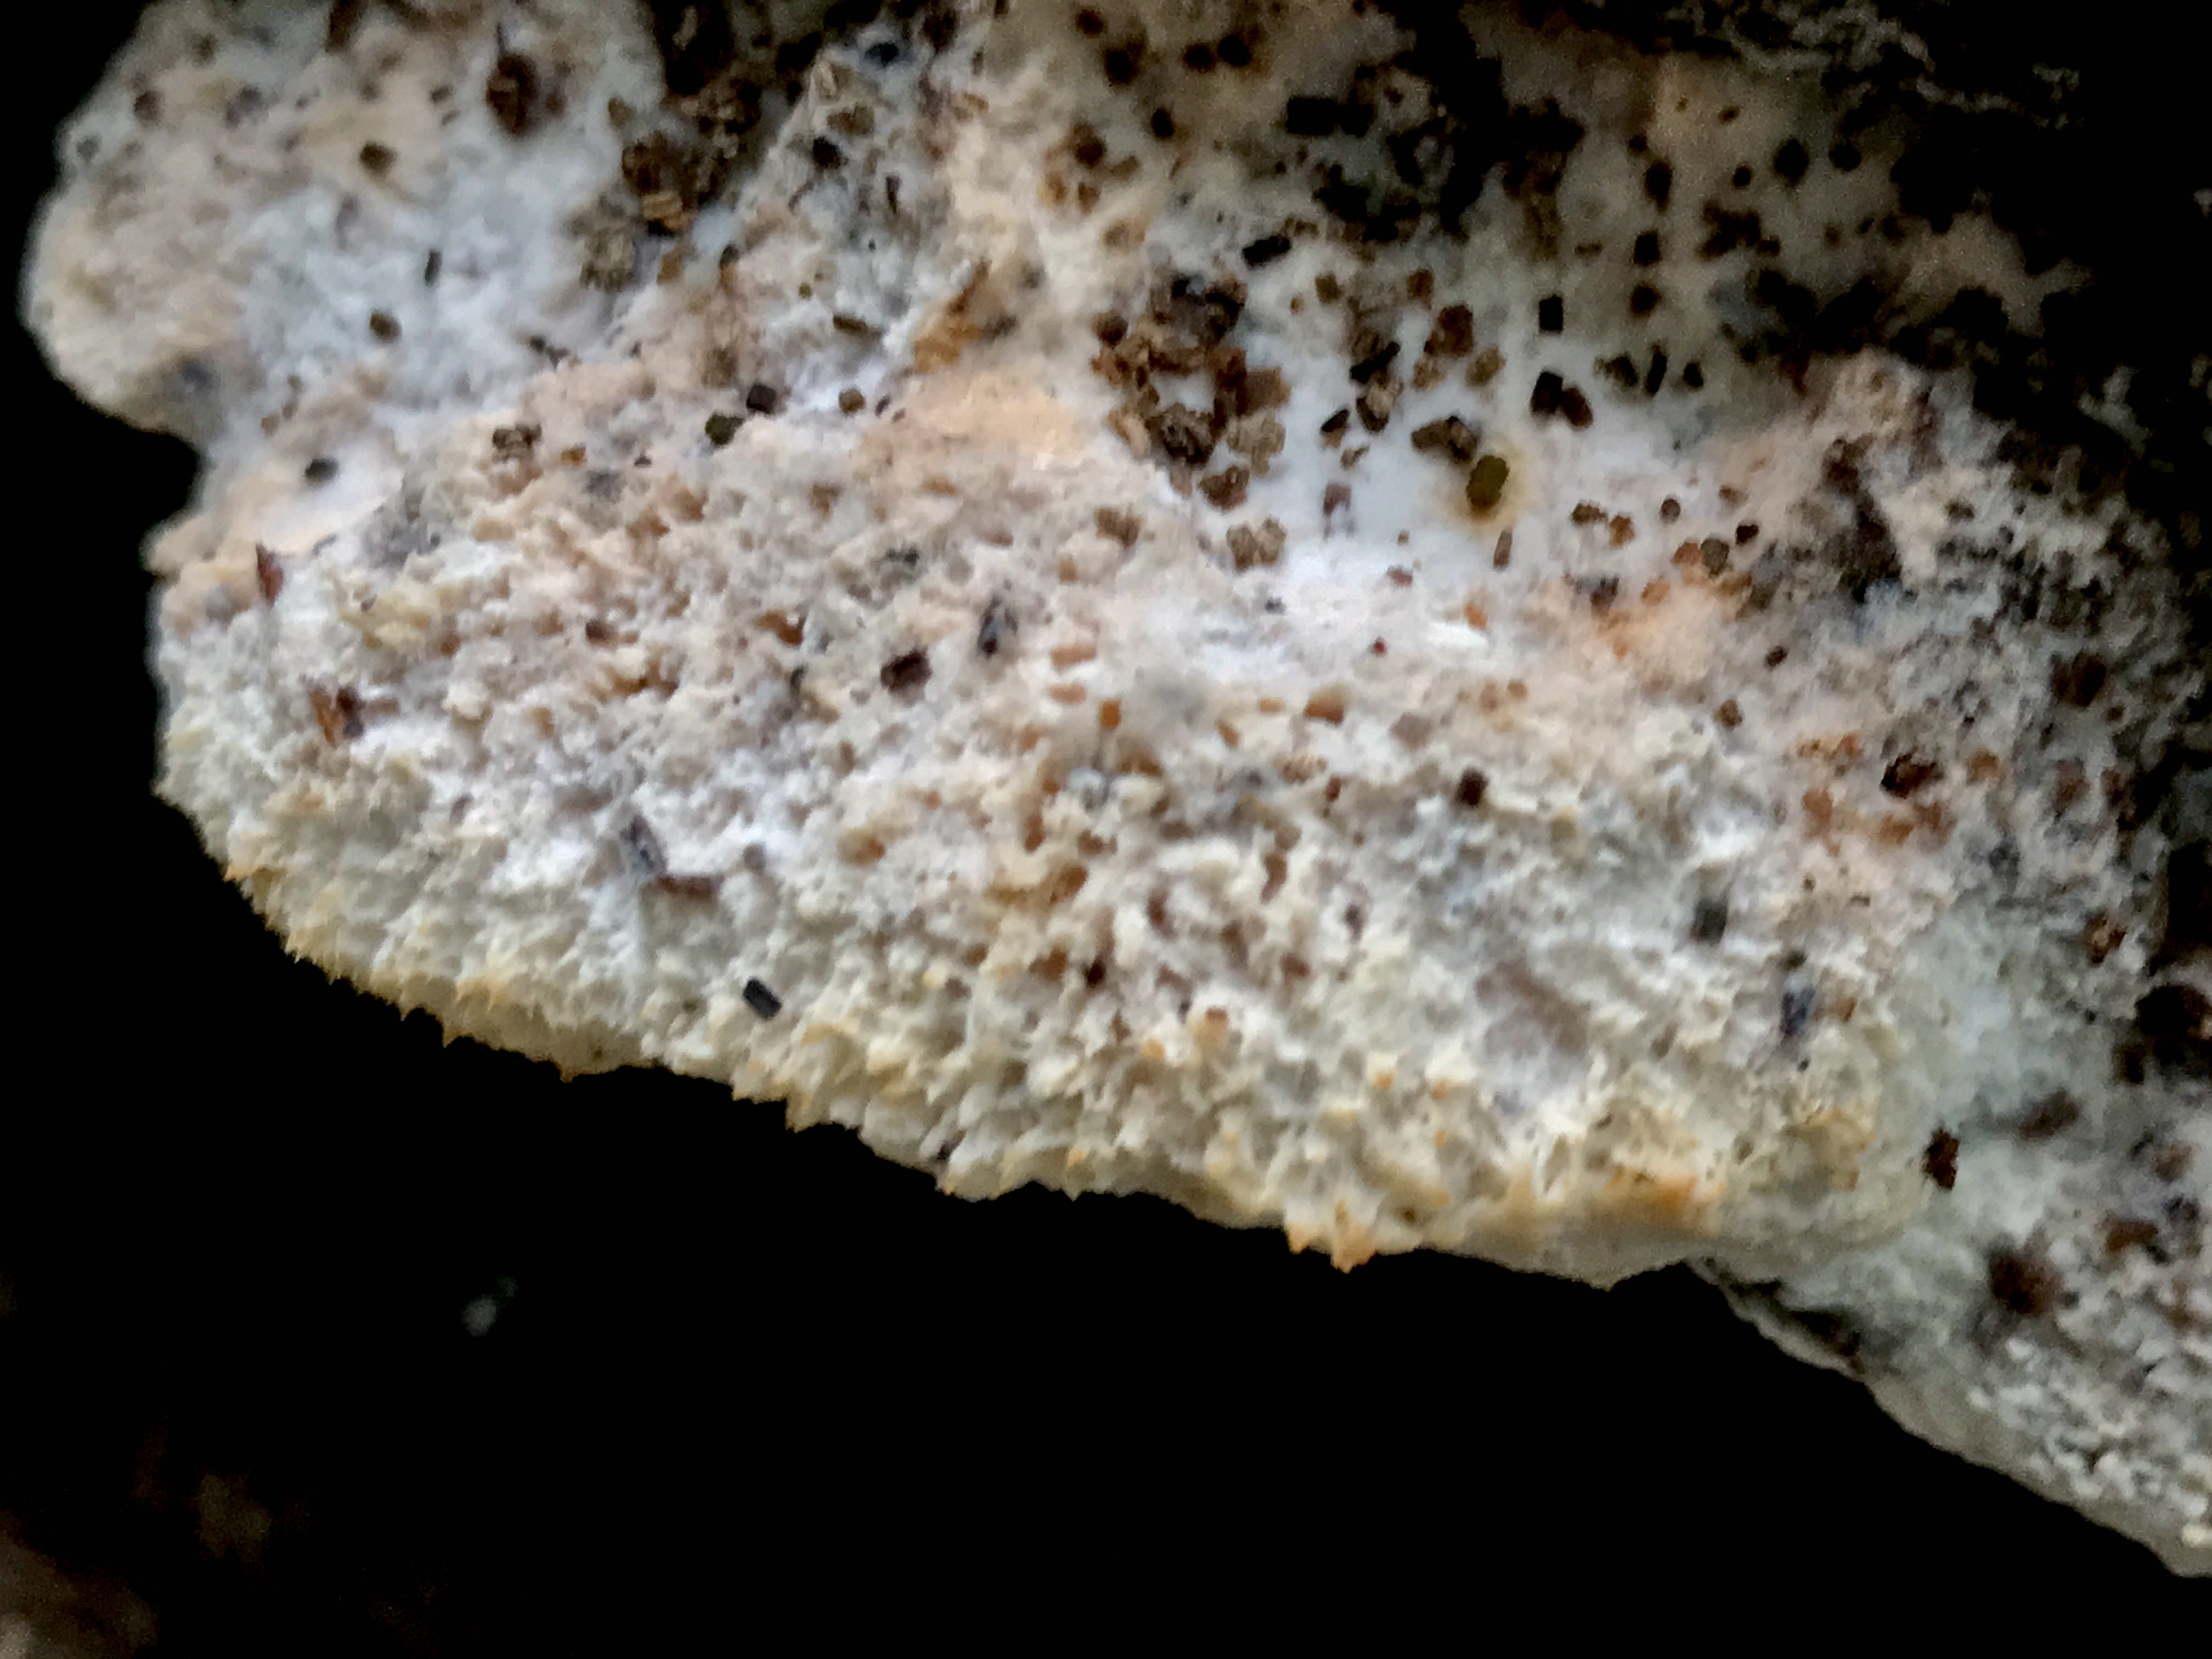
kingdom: Fungi
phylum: Basidiomycota
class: Agaricomycetes
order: Polyporales
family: Meruliaceae
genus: Pappia
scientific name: Pappia fissilis
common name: rosa fedtporesvamp
